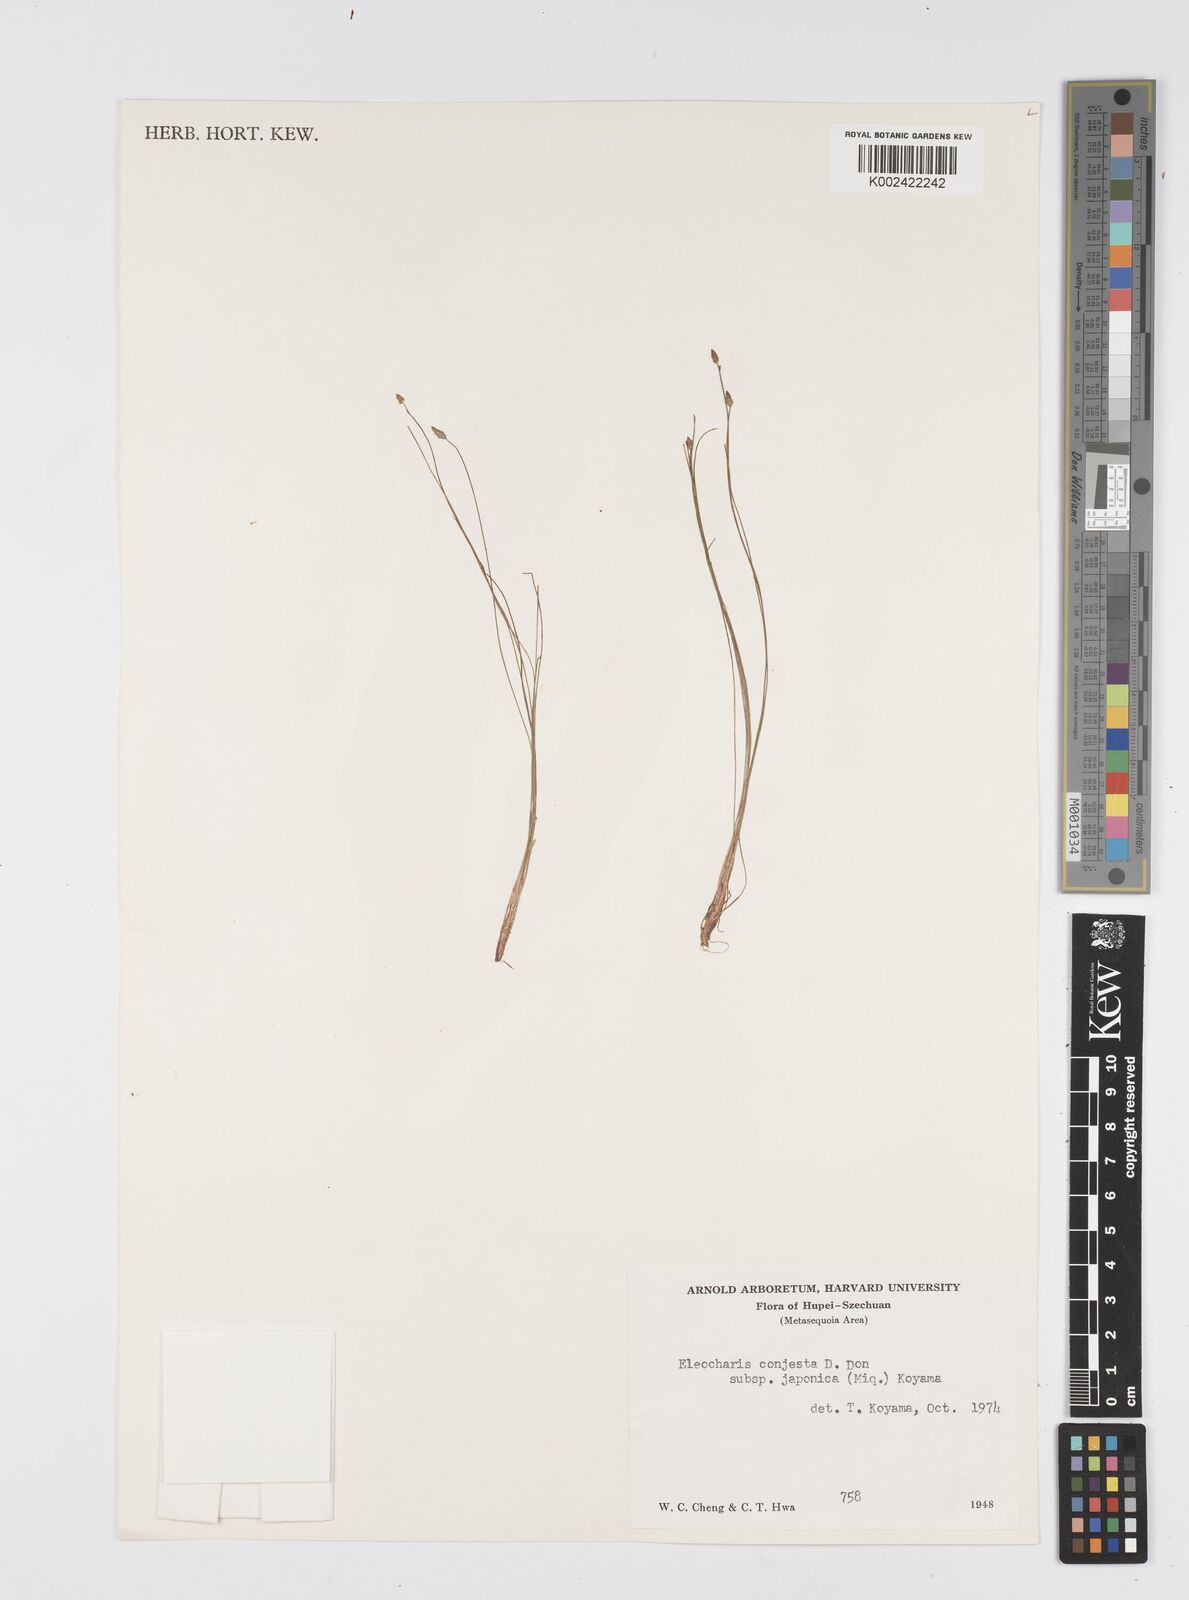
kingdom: Plantae
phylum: Tracheophyta
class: Liliopsida
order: Poales
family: Cyperaceae
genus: Eleocharis
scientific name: Eleocharis pellucida
